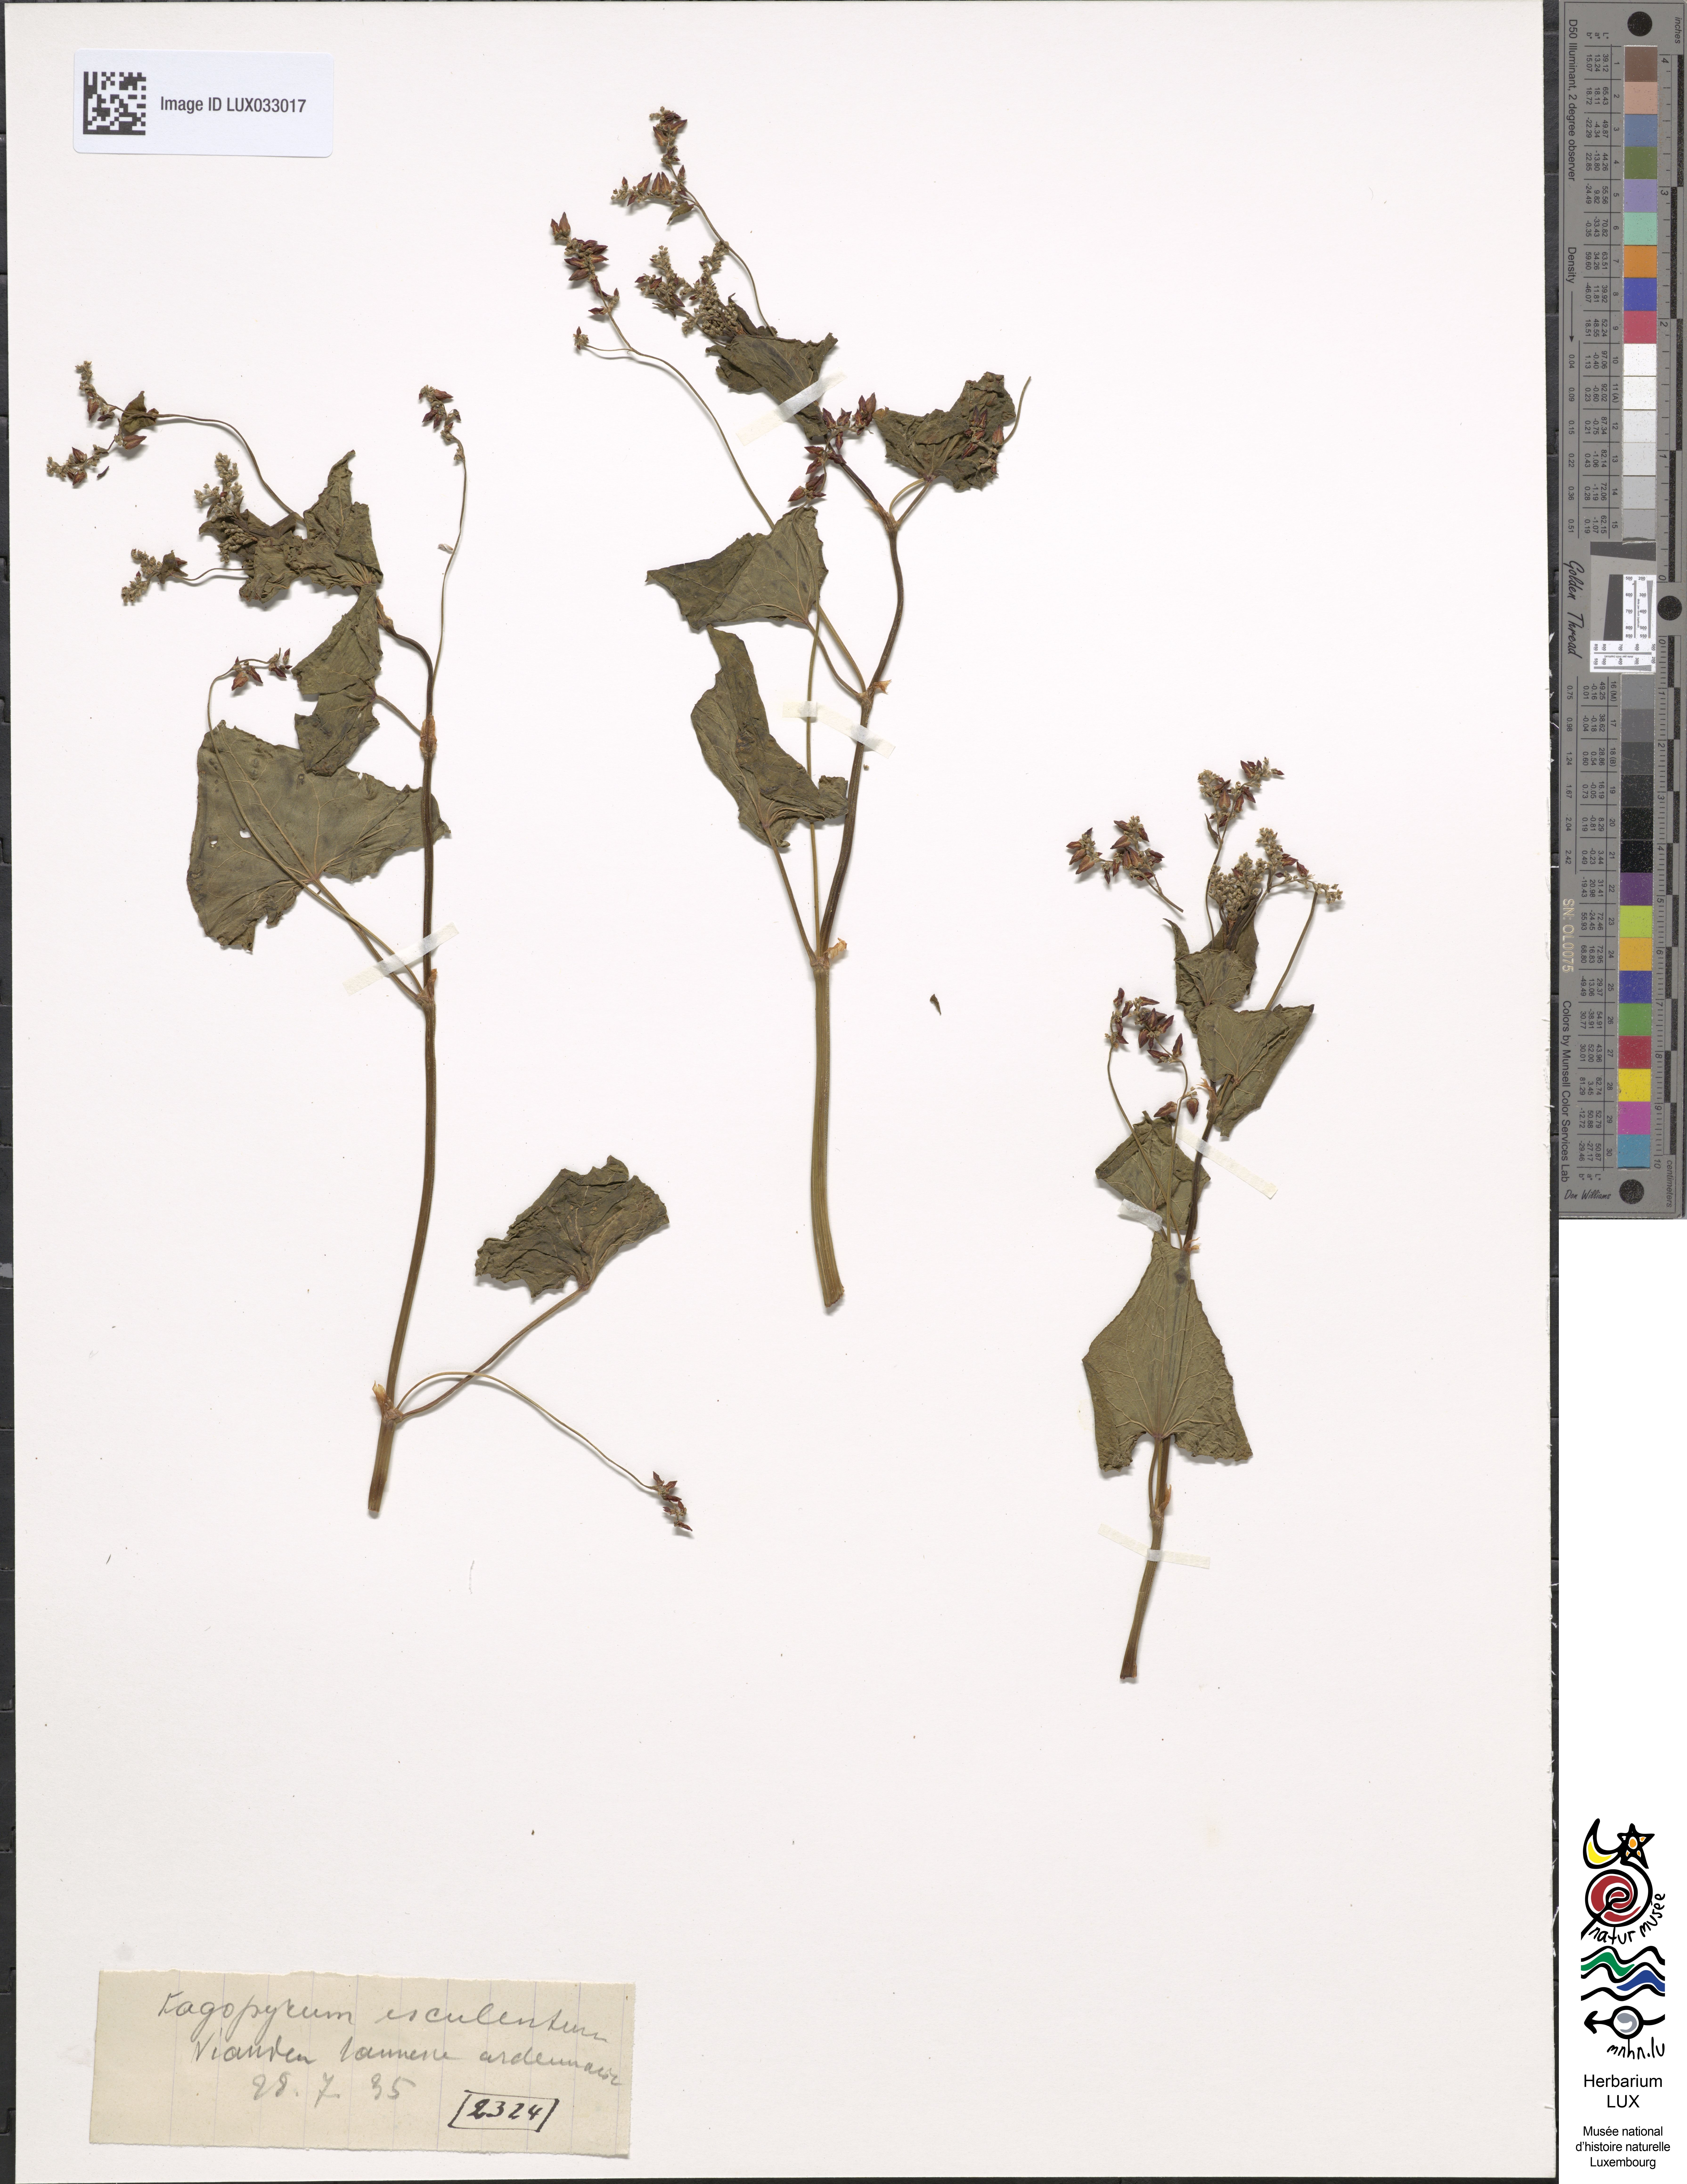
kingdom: Plantae
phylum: Tracheophyta
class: Magnoliopsida
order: Caryophyllales
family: Polygonaceae
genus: Fagopyrum
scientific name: Fagopyrum esculentum
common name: Buckwheat
